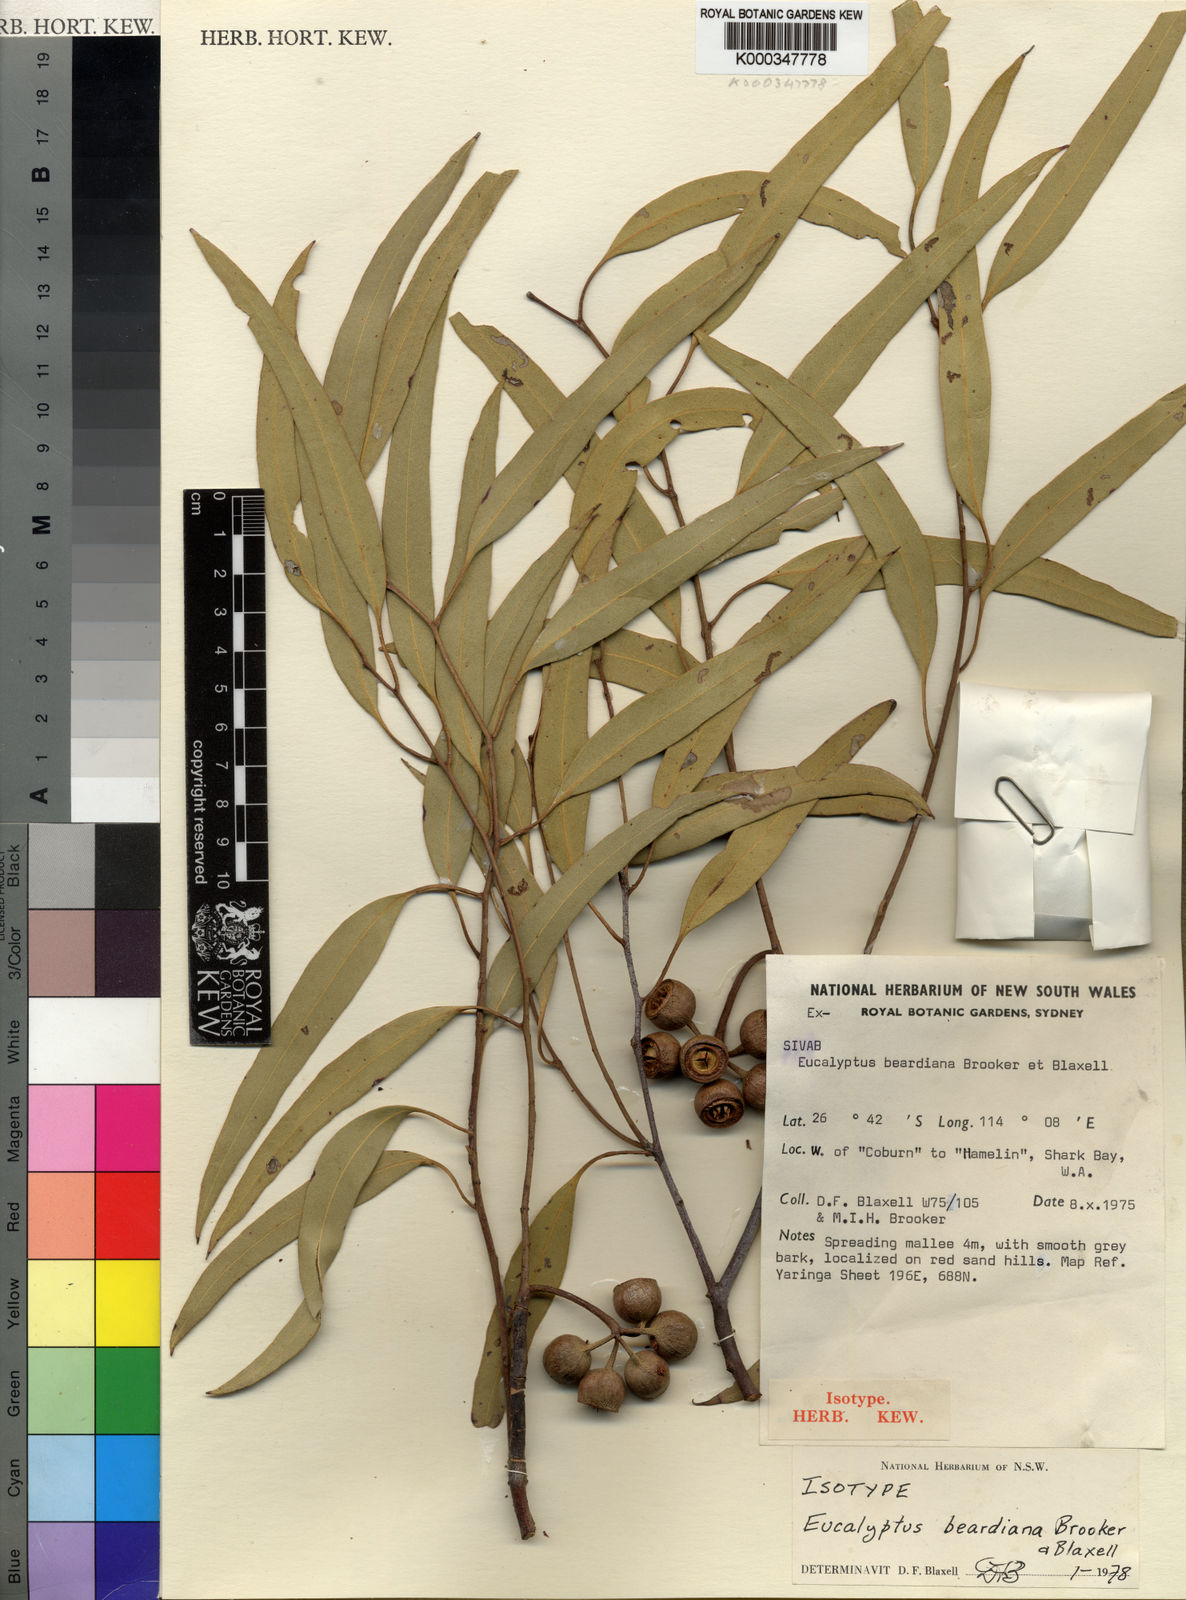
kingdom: Plantae
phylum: Tracheophyta
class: Magnoliopsida
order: Myrtales
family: Myrtaceae
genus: Eucalyptus
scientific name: Eucalyptus beardiana
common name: Beard's mallee
